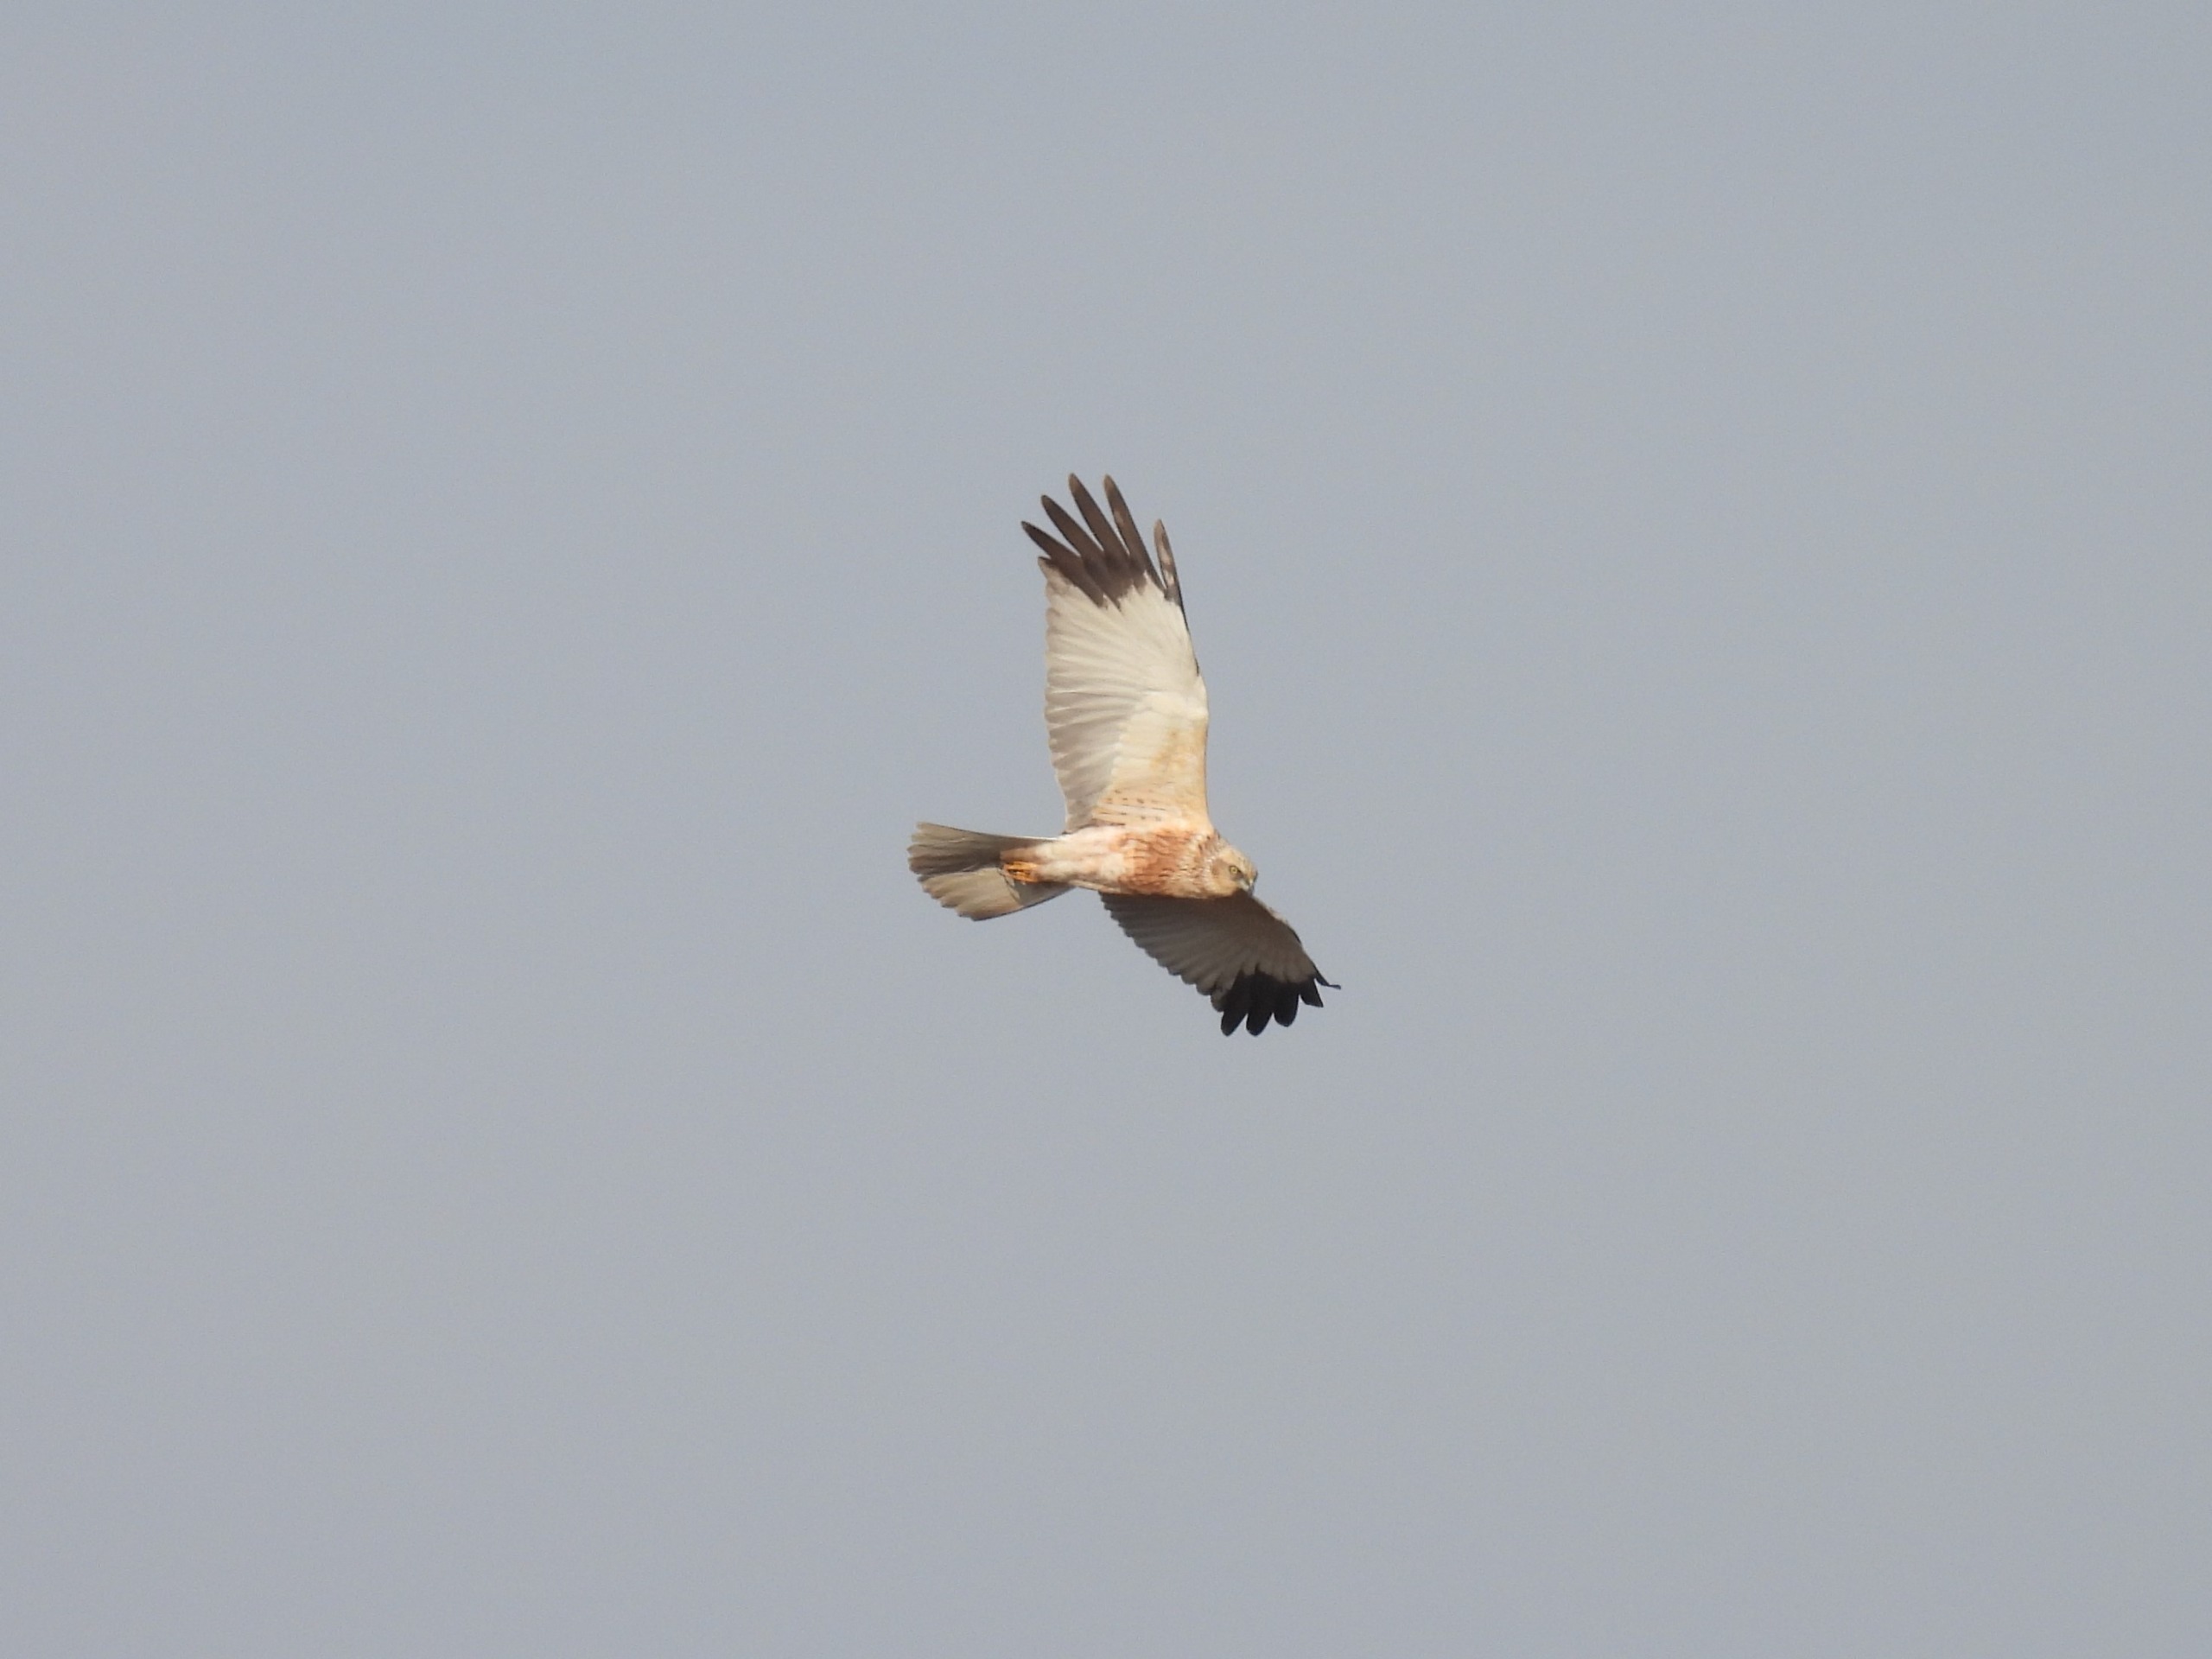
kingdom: Animalia
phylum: Chordata
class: Aves
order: Accipitriformes
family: Accipitridae
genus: Circus
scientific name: Circus aeruginosus
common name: Rørhøg
